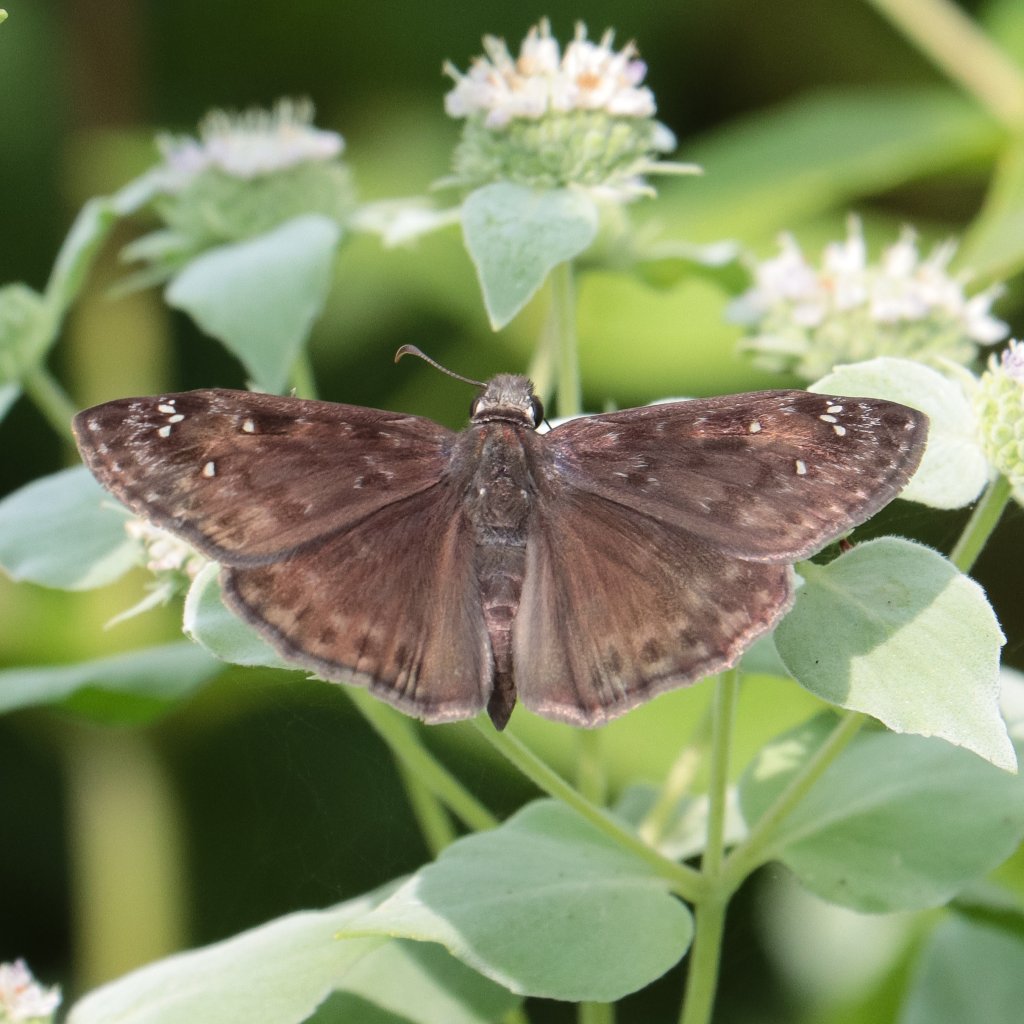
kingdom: Animalia
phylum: Arthropoda
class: Insecta
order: Lepidoptera
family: Hesperiidae
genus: Gesta
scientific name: Gesta
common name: Horace's Duskywing
